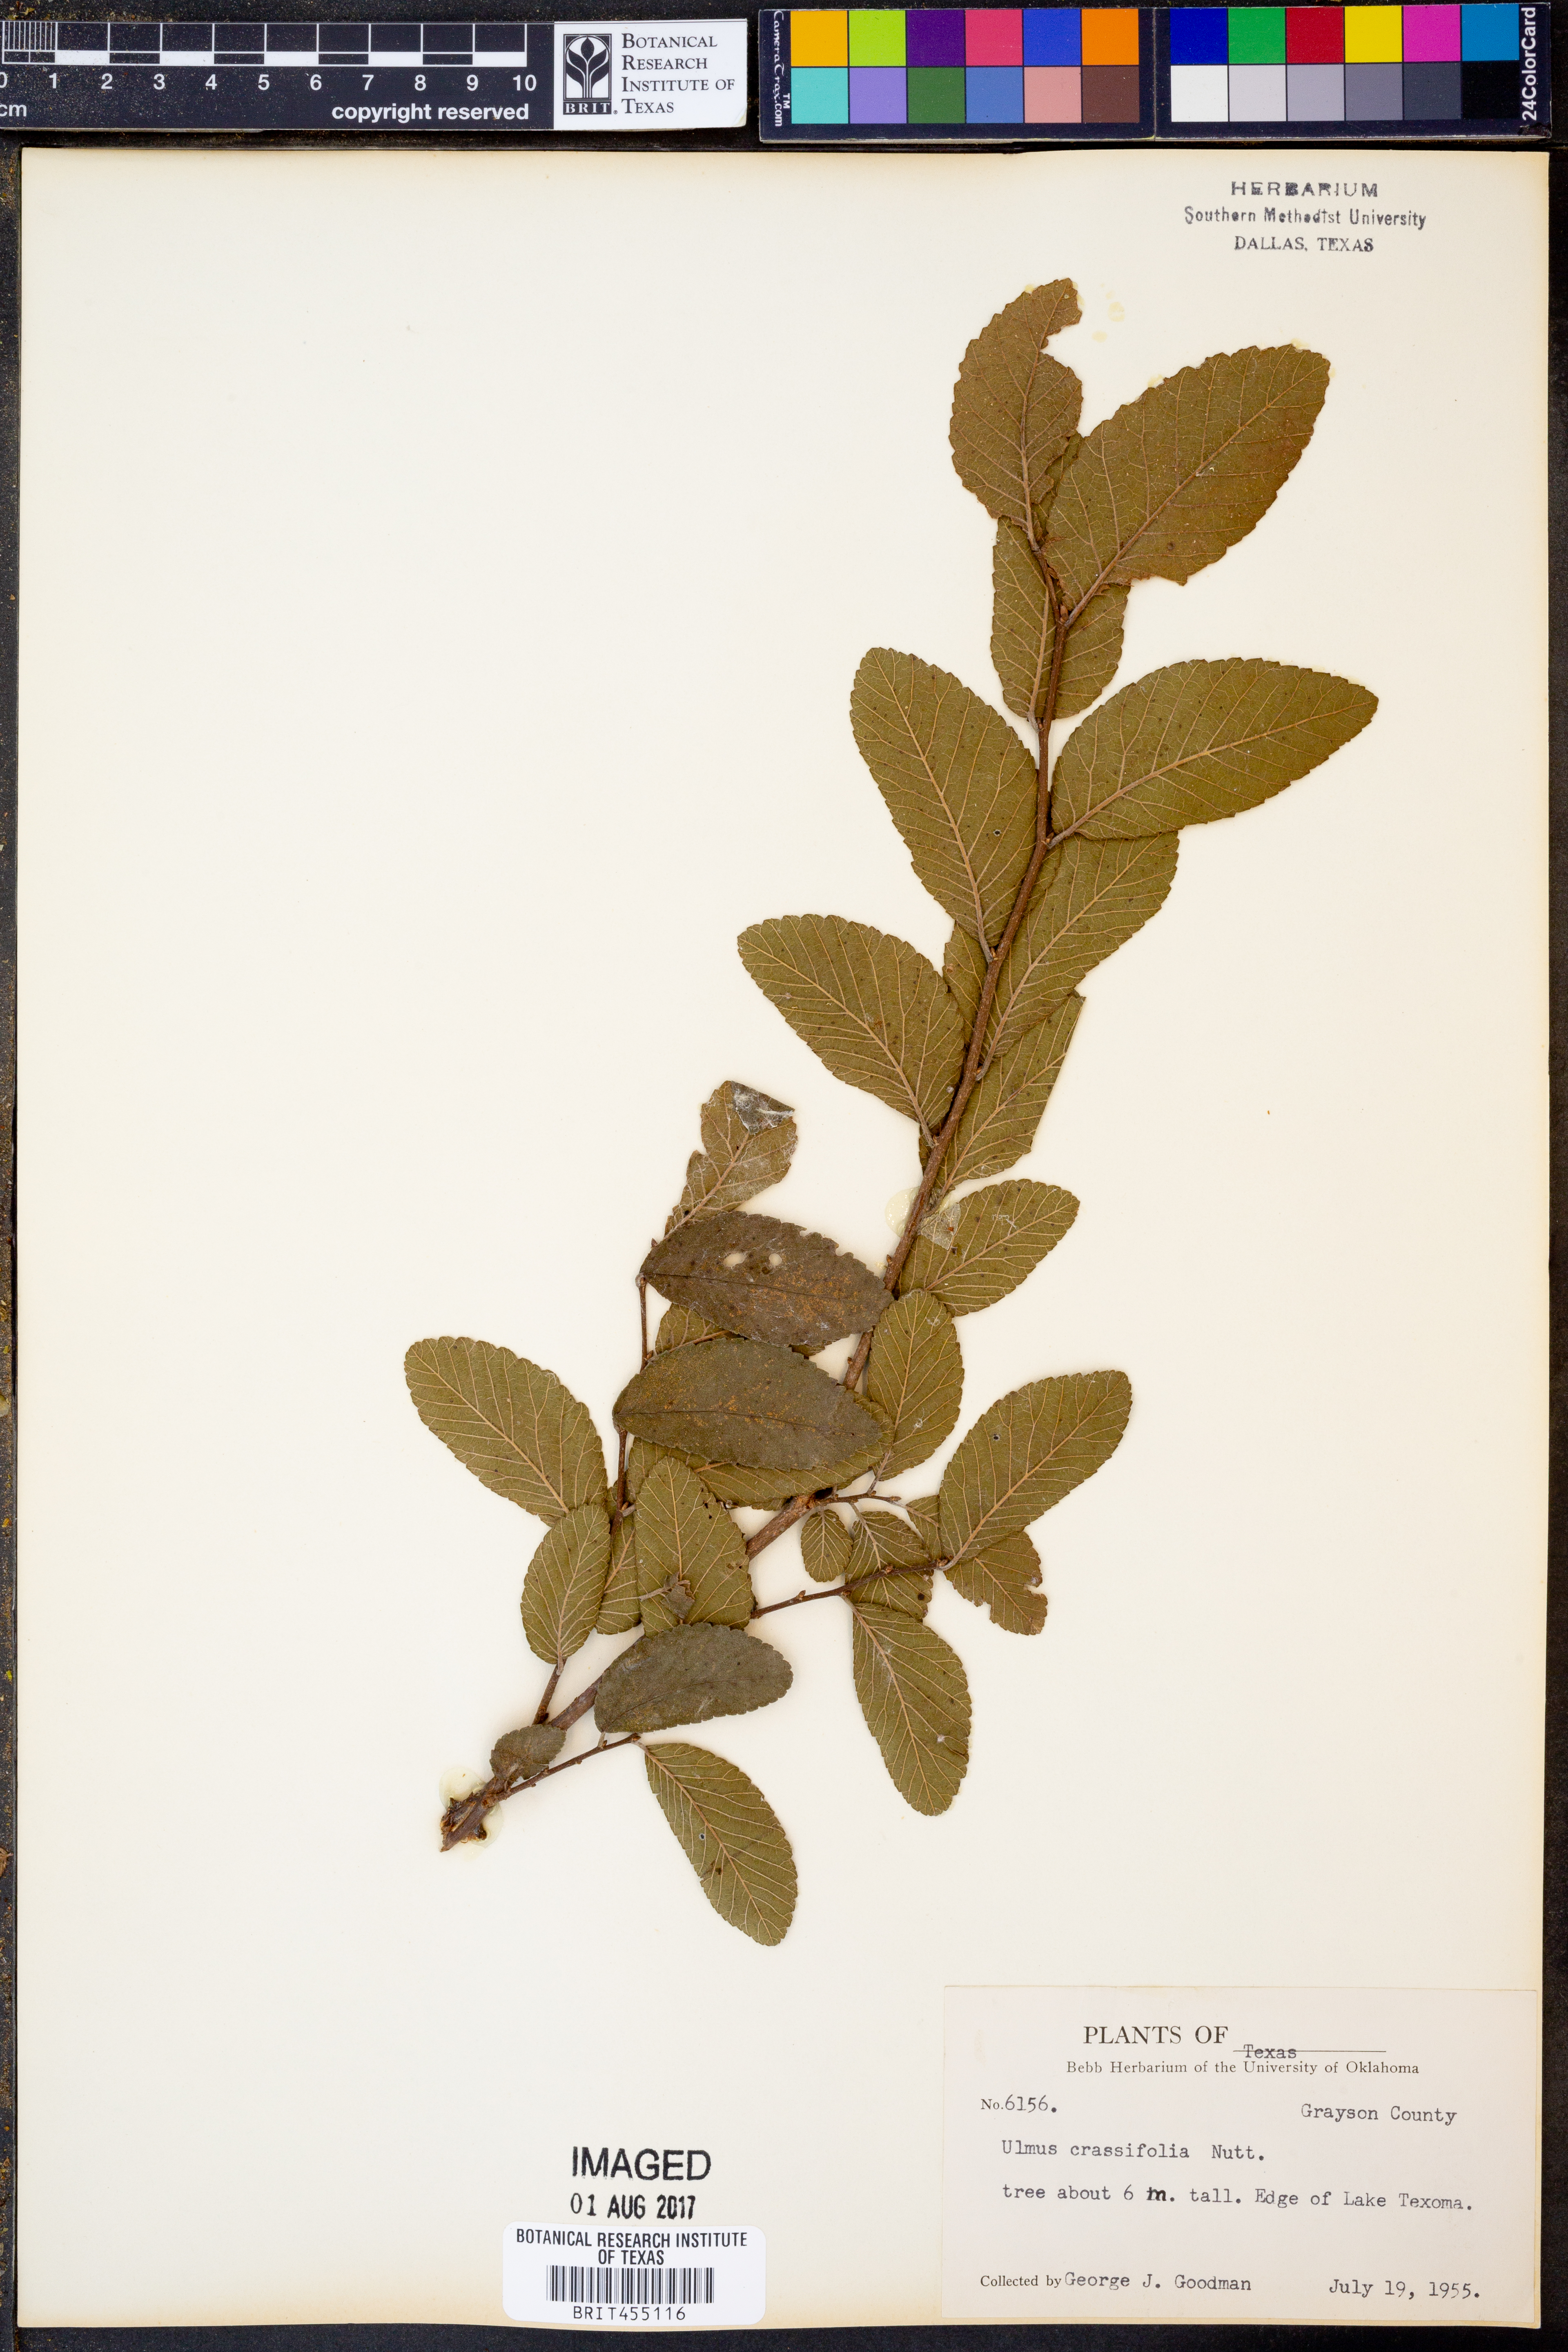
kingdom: Plantae
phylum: Tracheophyta
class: Magnoliopsida
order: Rosales
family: Ulmaceae
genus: Ulmus
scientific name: Ulmus crassifolia
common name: Basket elm
